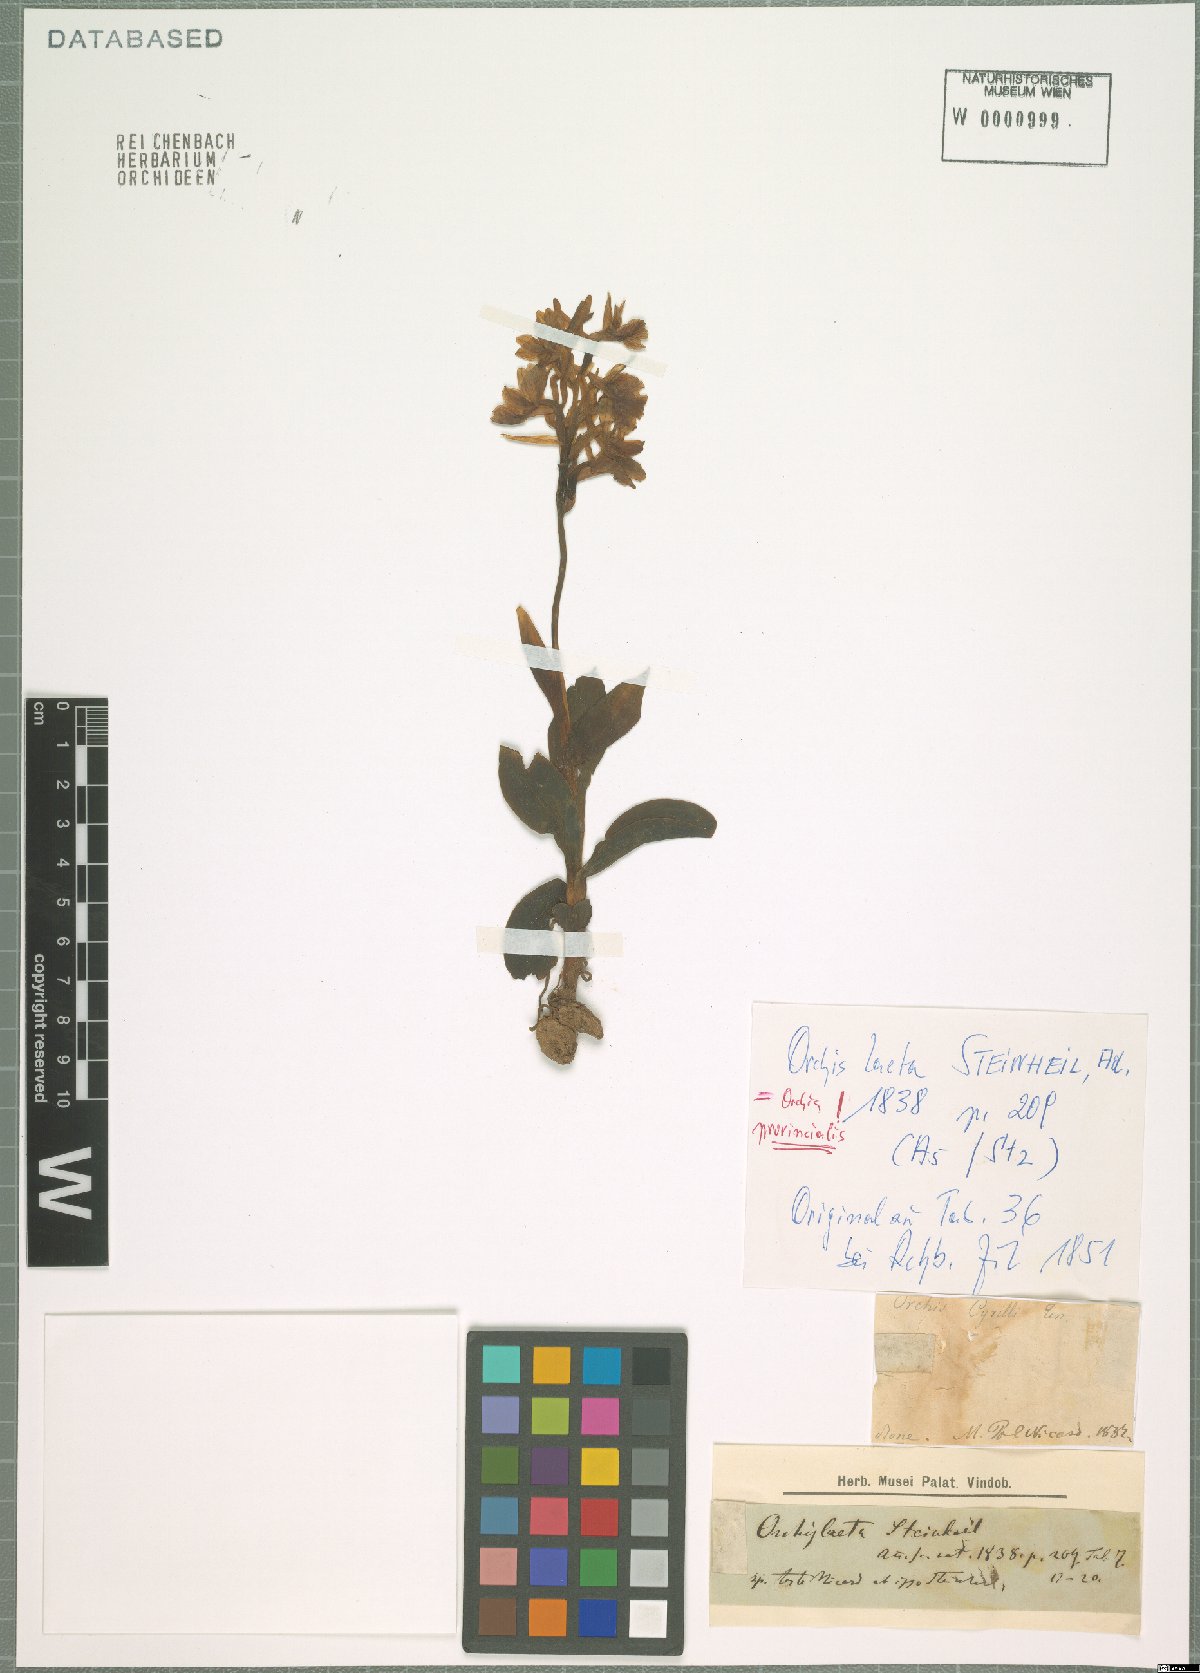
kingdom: Plantae
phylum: Tracheophyta
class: Liliopsida
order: Asparagales
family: Orchidaceae
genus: Orchis
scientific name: Orchis provincialis
